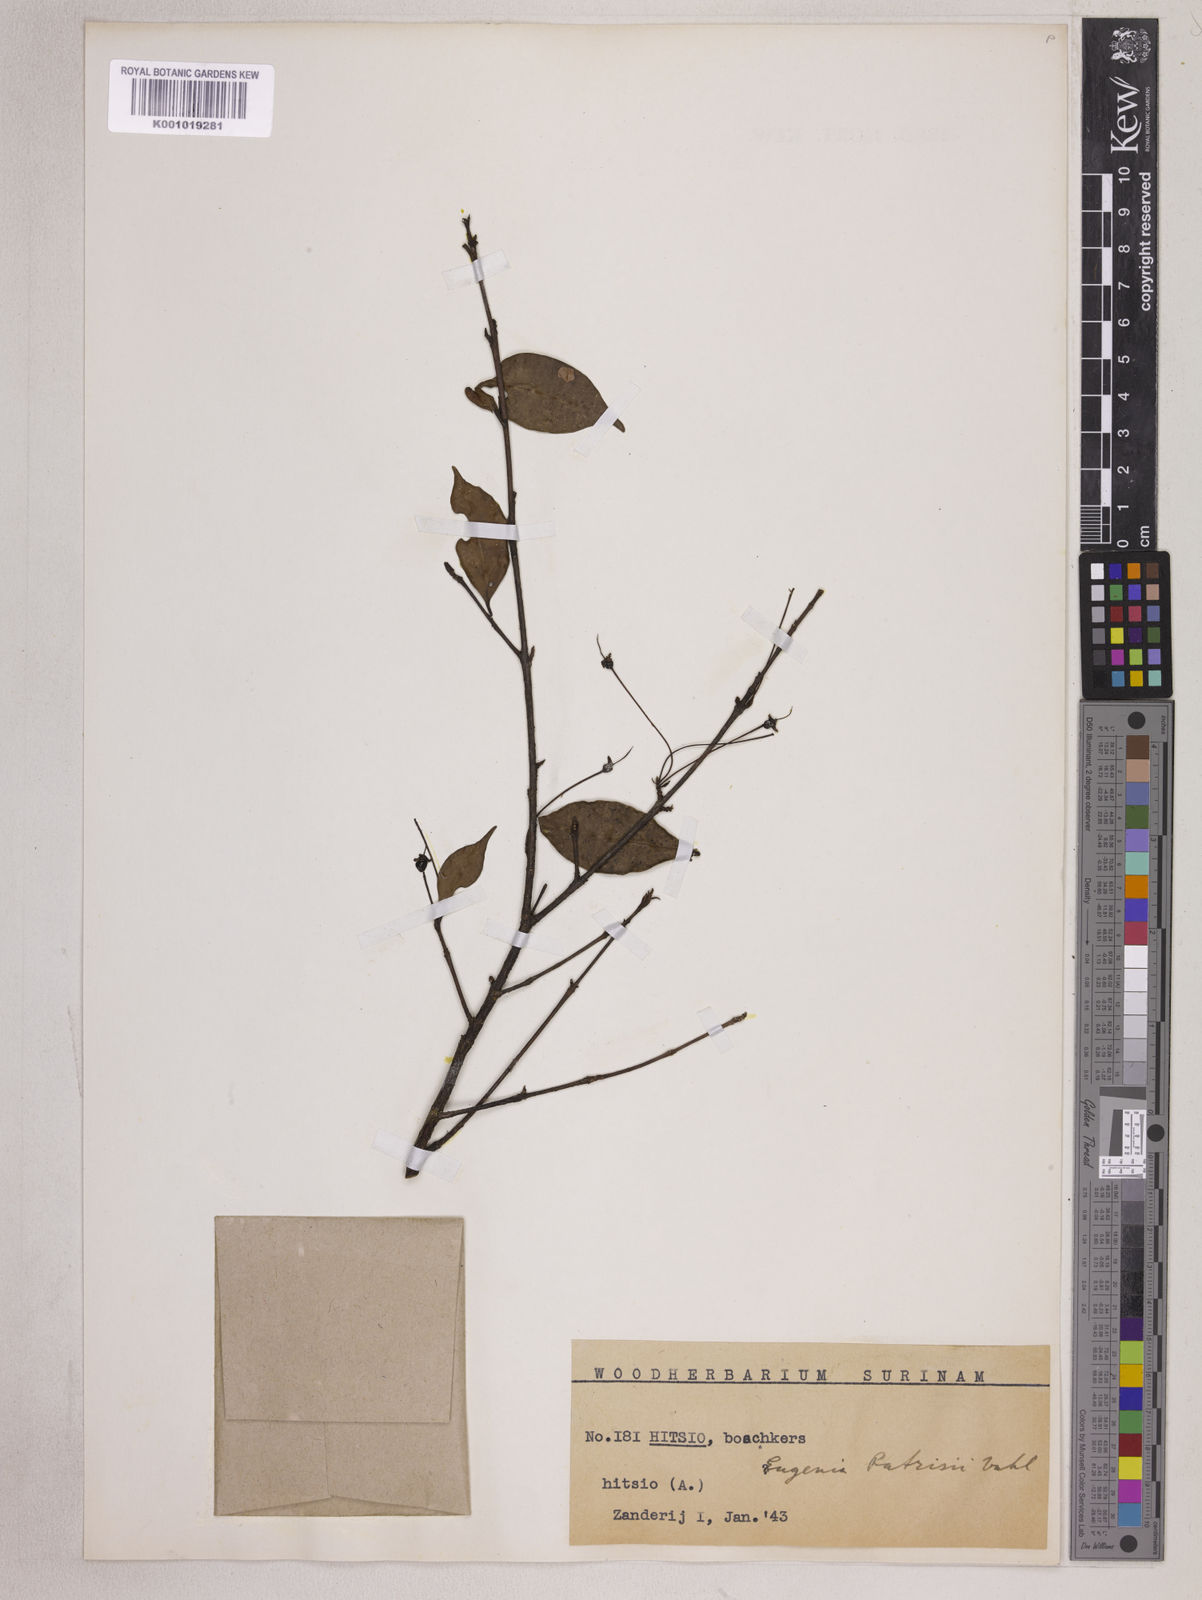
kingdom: Plantae
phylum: Tracheophyta
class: Magnoliopsida
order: Myrtales
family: Myrtaceae
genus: Eugenia
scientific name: Eugenia patrisii
